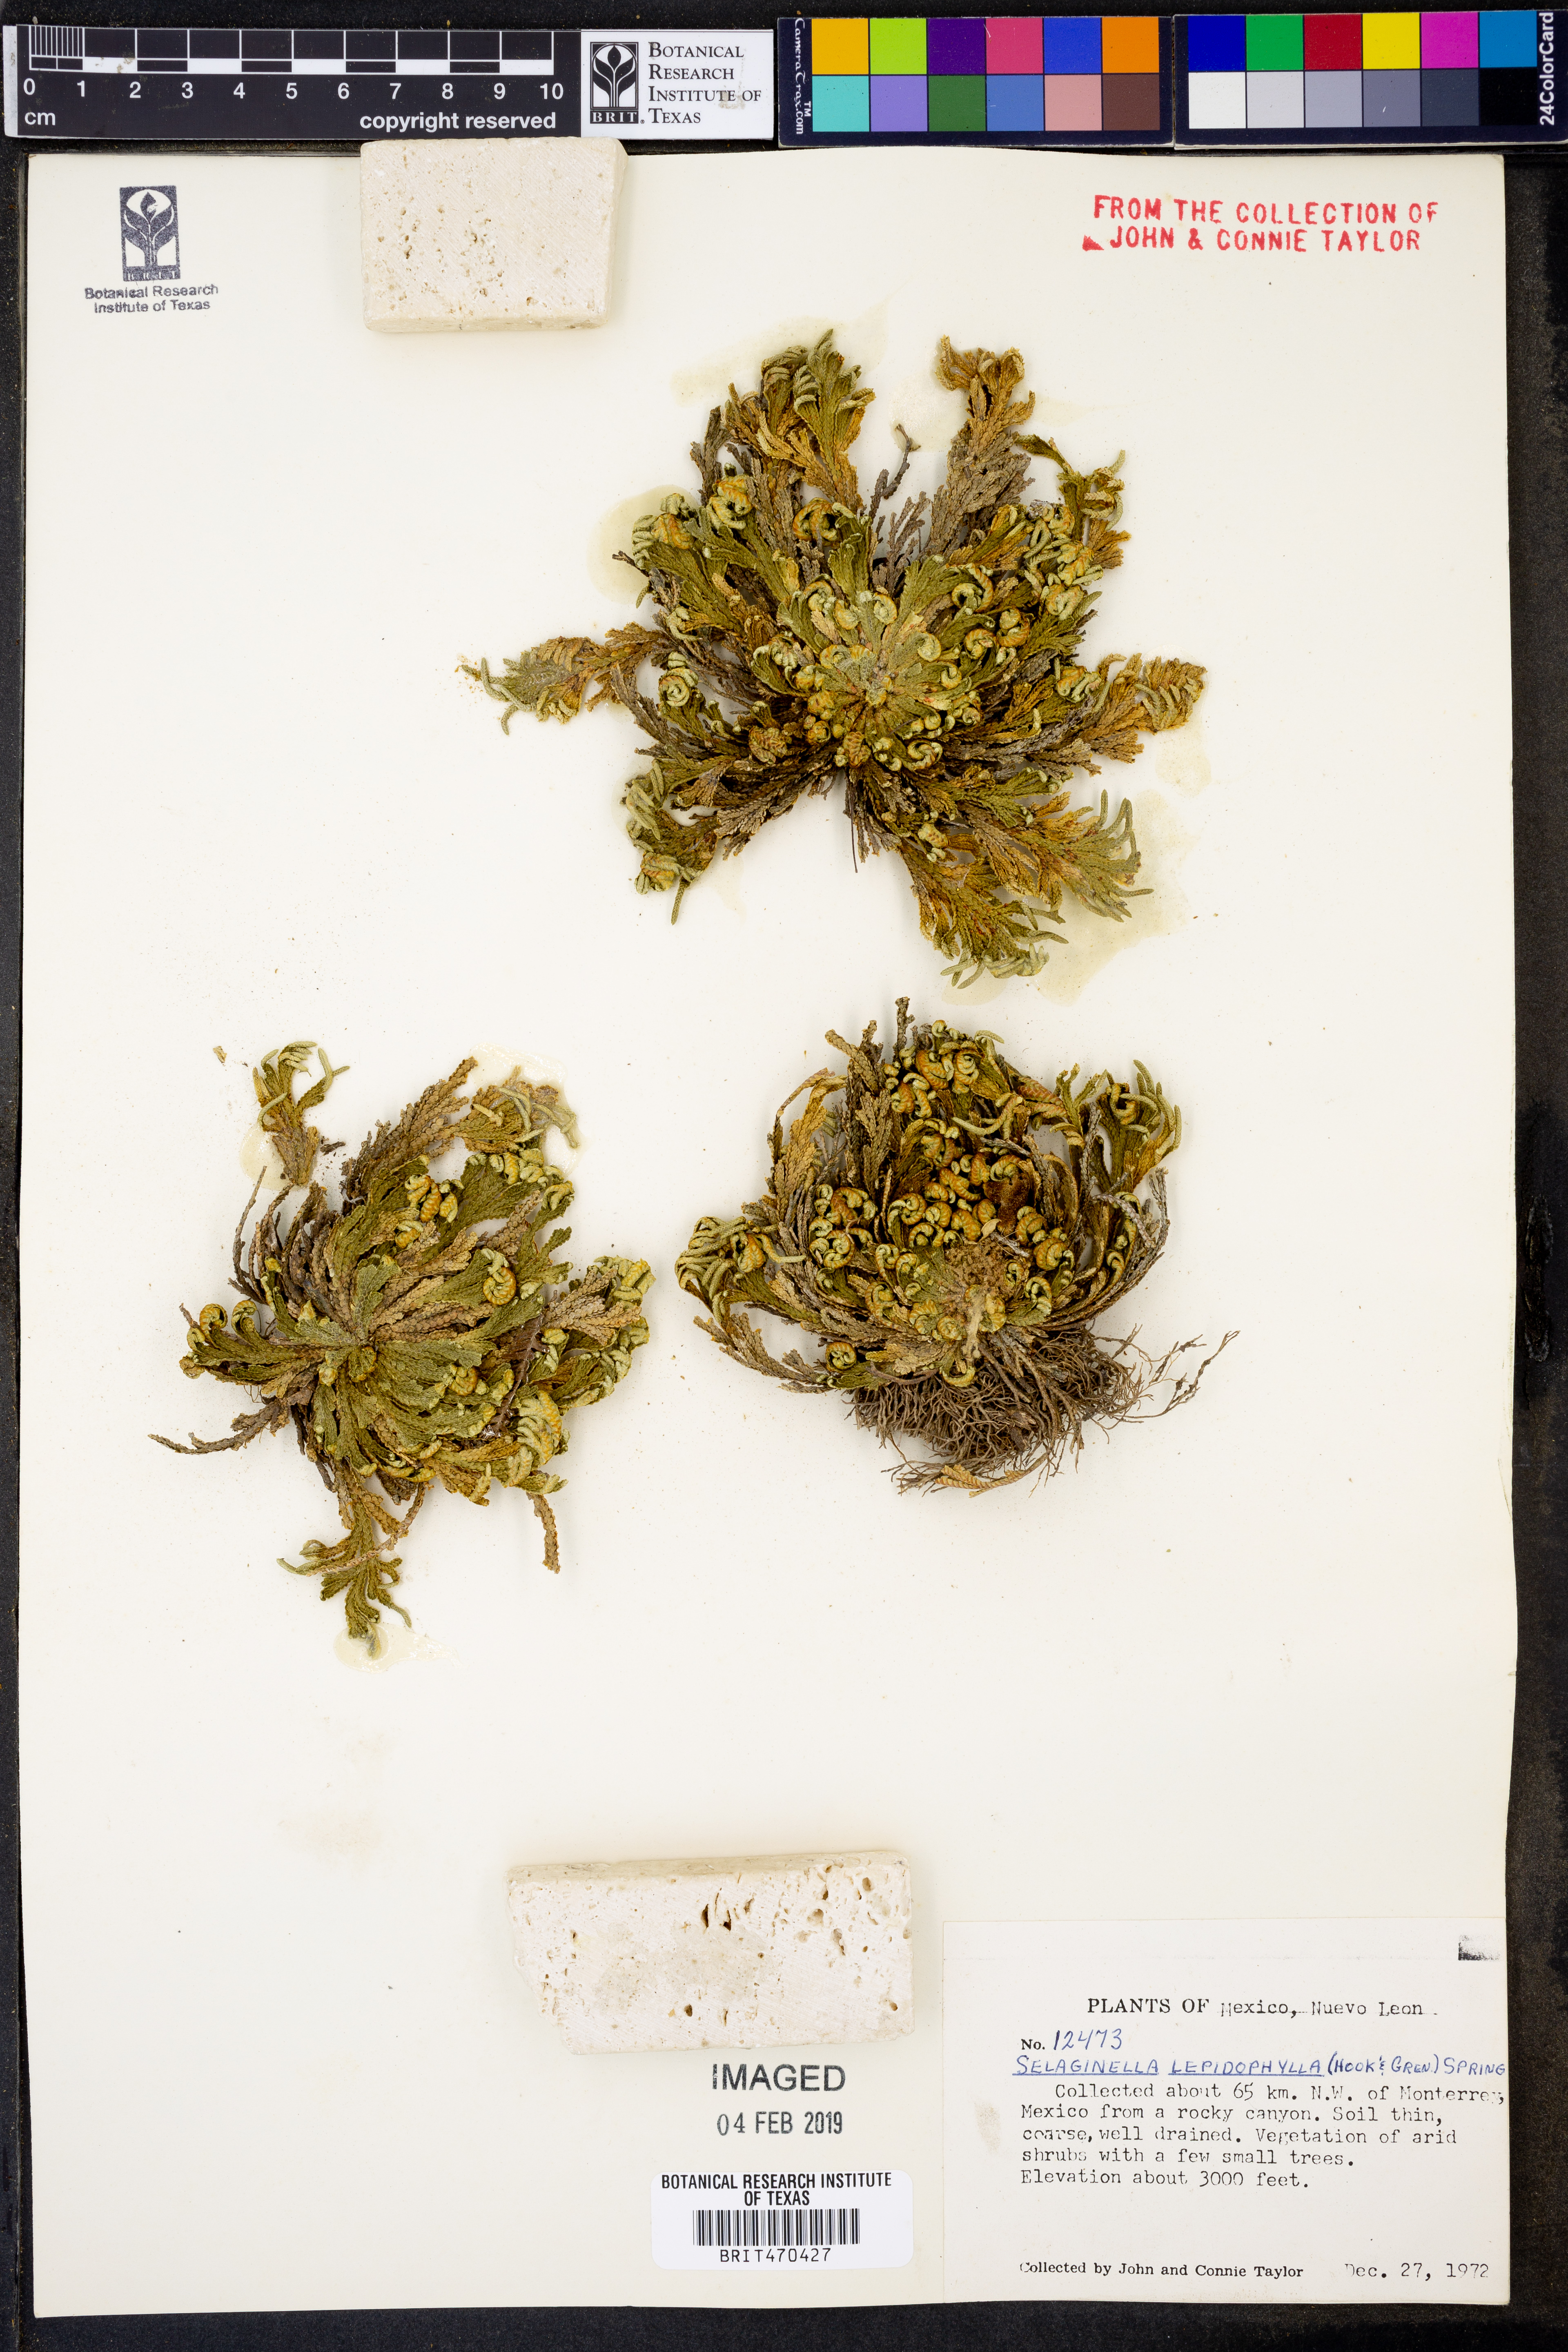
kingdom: Plantae
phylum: Tracheophyta
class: Lycopodiopsida
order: Selaginellales
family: Selaginellaceae
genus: Selaginella
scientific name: Selaginella lepidophylla
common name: Rose-of-jericho
